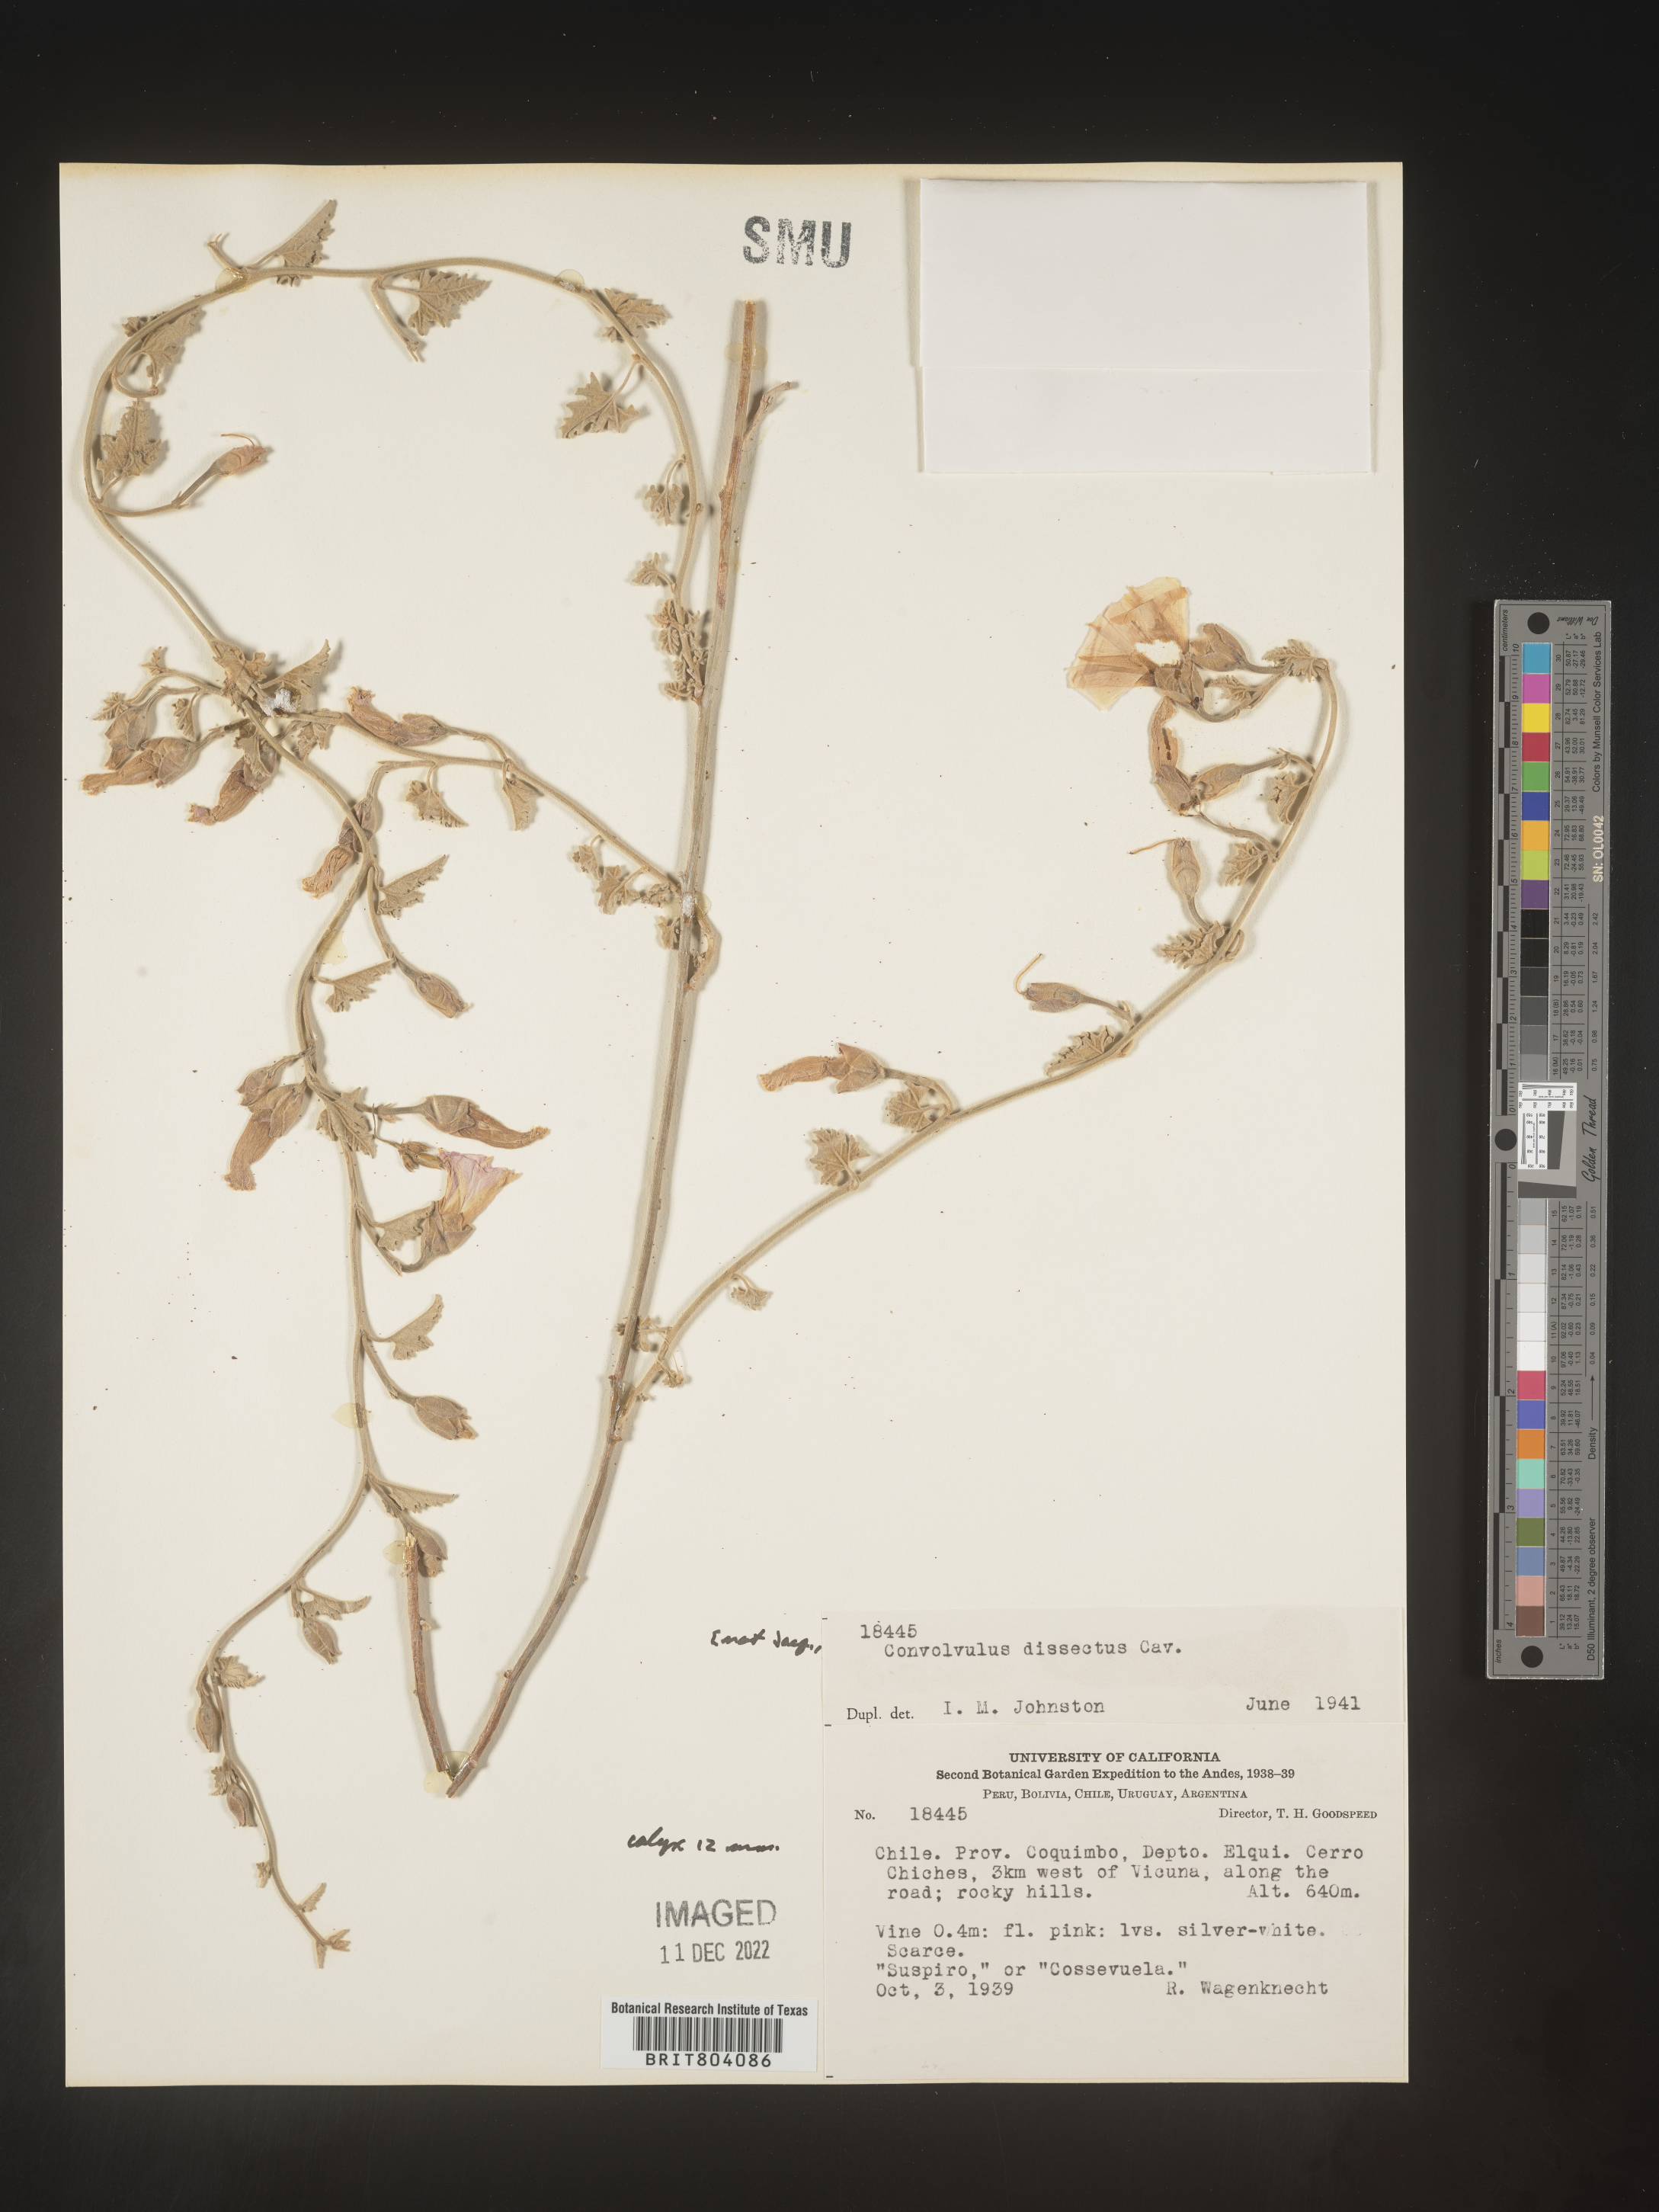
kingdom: Plantae
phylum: Tracheophyta
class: Magnoliopsida
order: Solanales
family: Convolvulaceae
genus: Convolvulus
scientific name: Convolvulus
